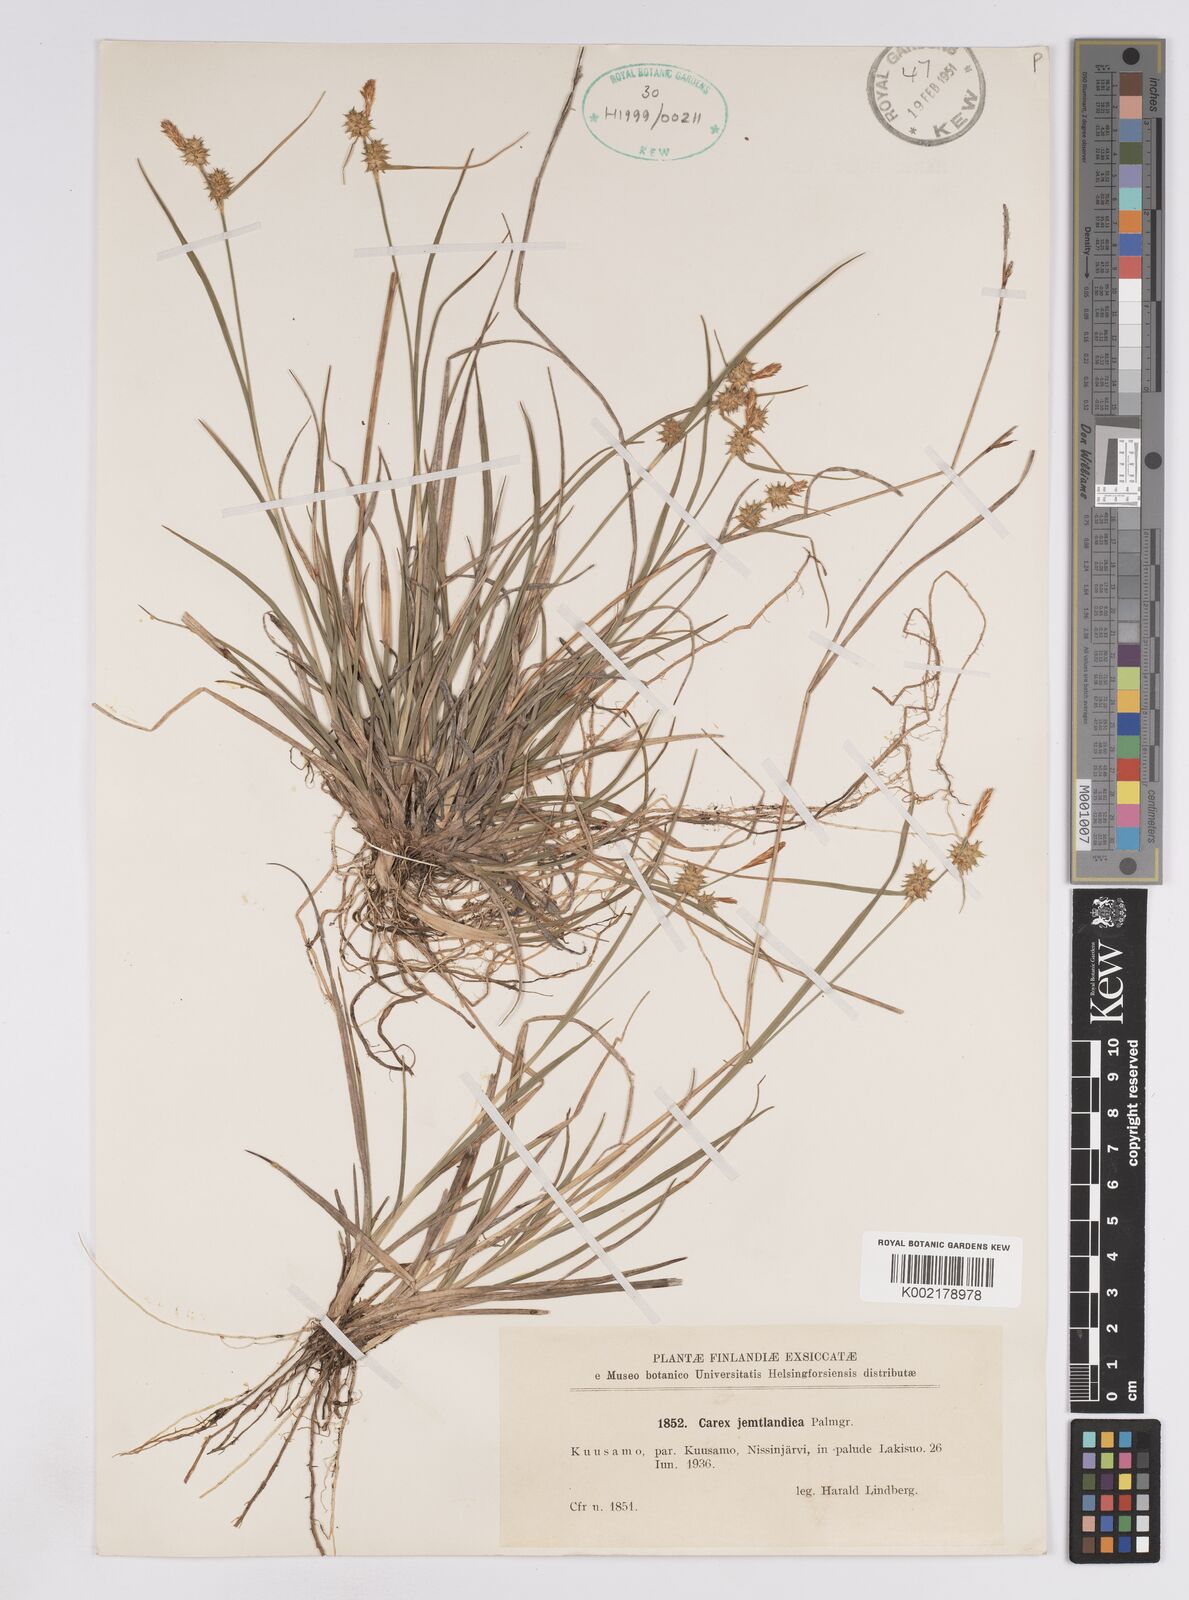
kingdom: Plantae
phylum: Tracheophyta
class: Liliopsida
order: Poales
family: Cyperaceae
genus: Carex
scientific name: Carex lepidocarpa
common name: Long-stalked yellow-sedge
